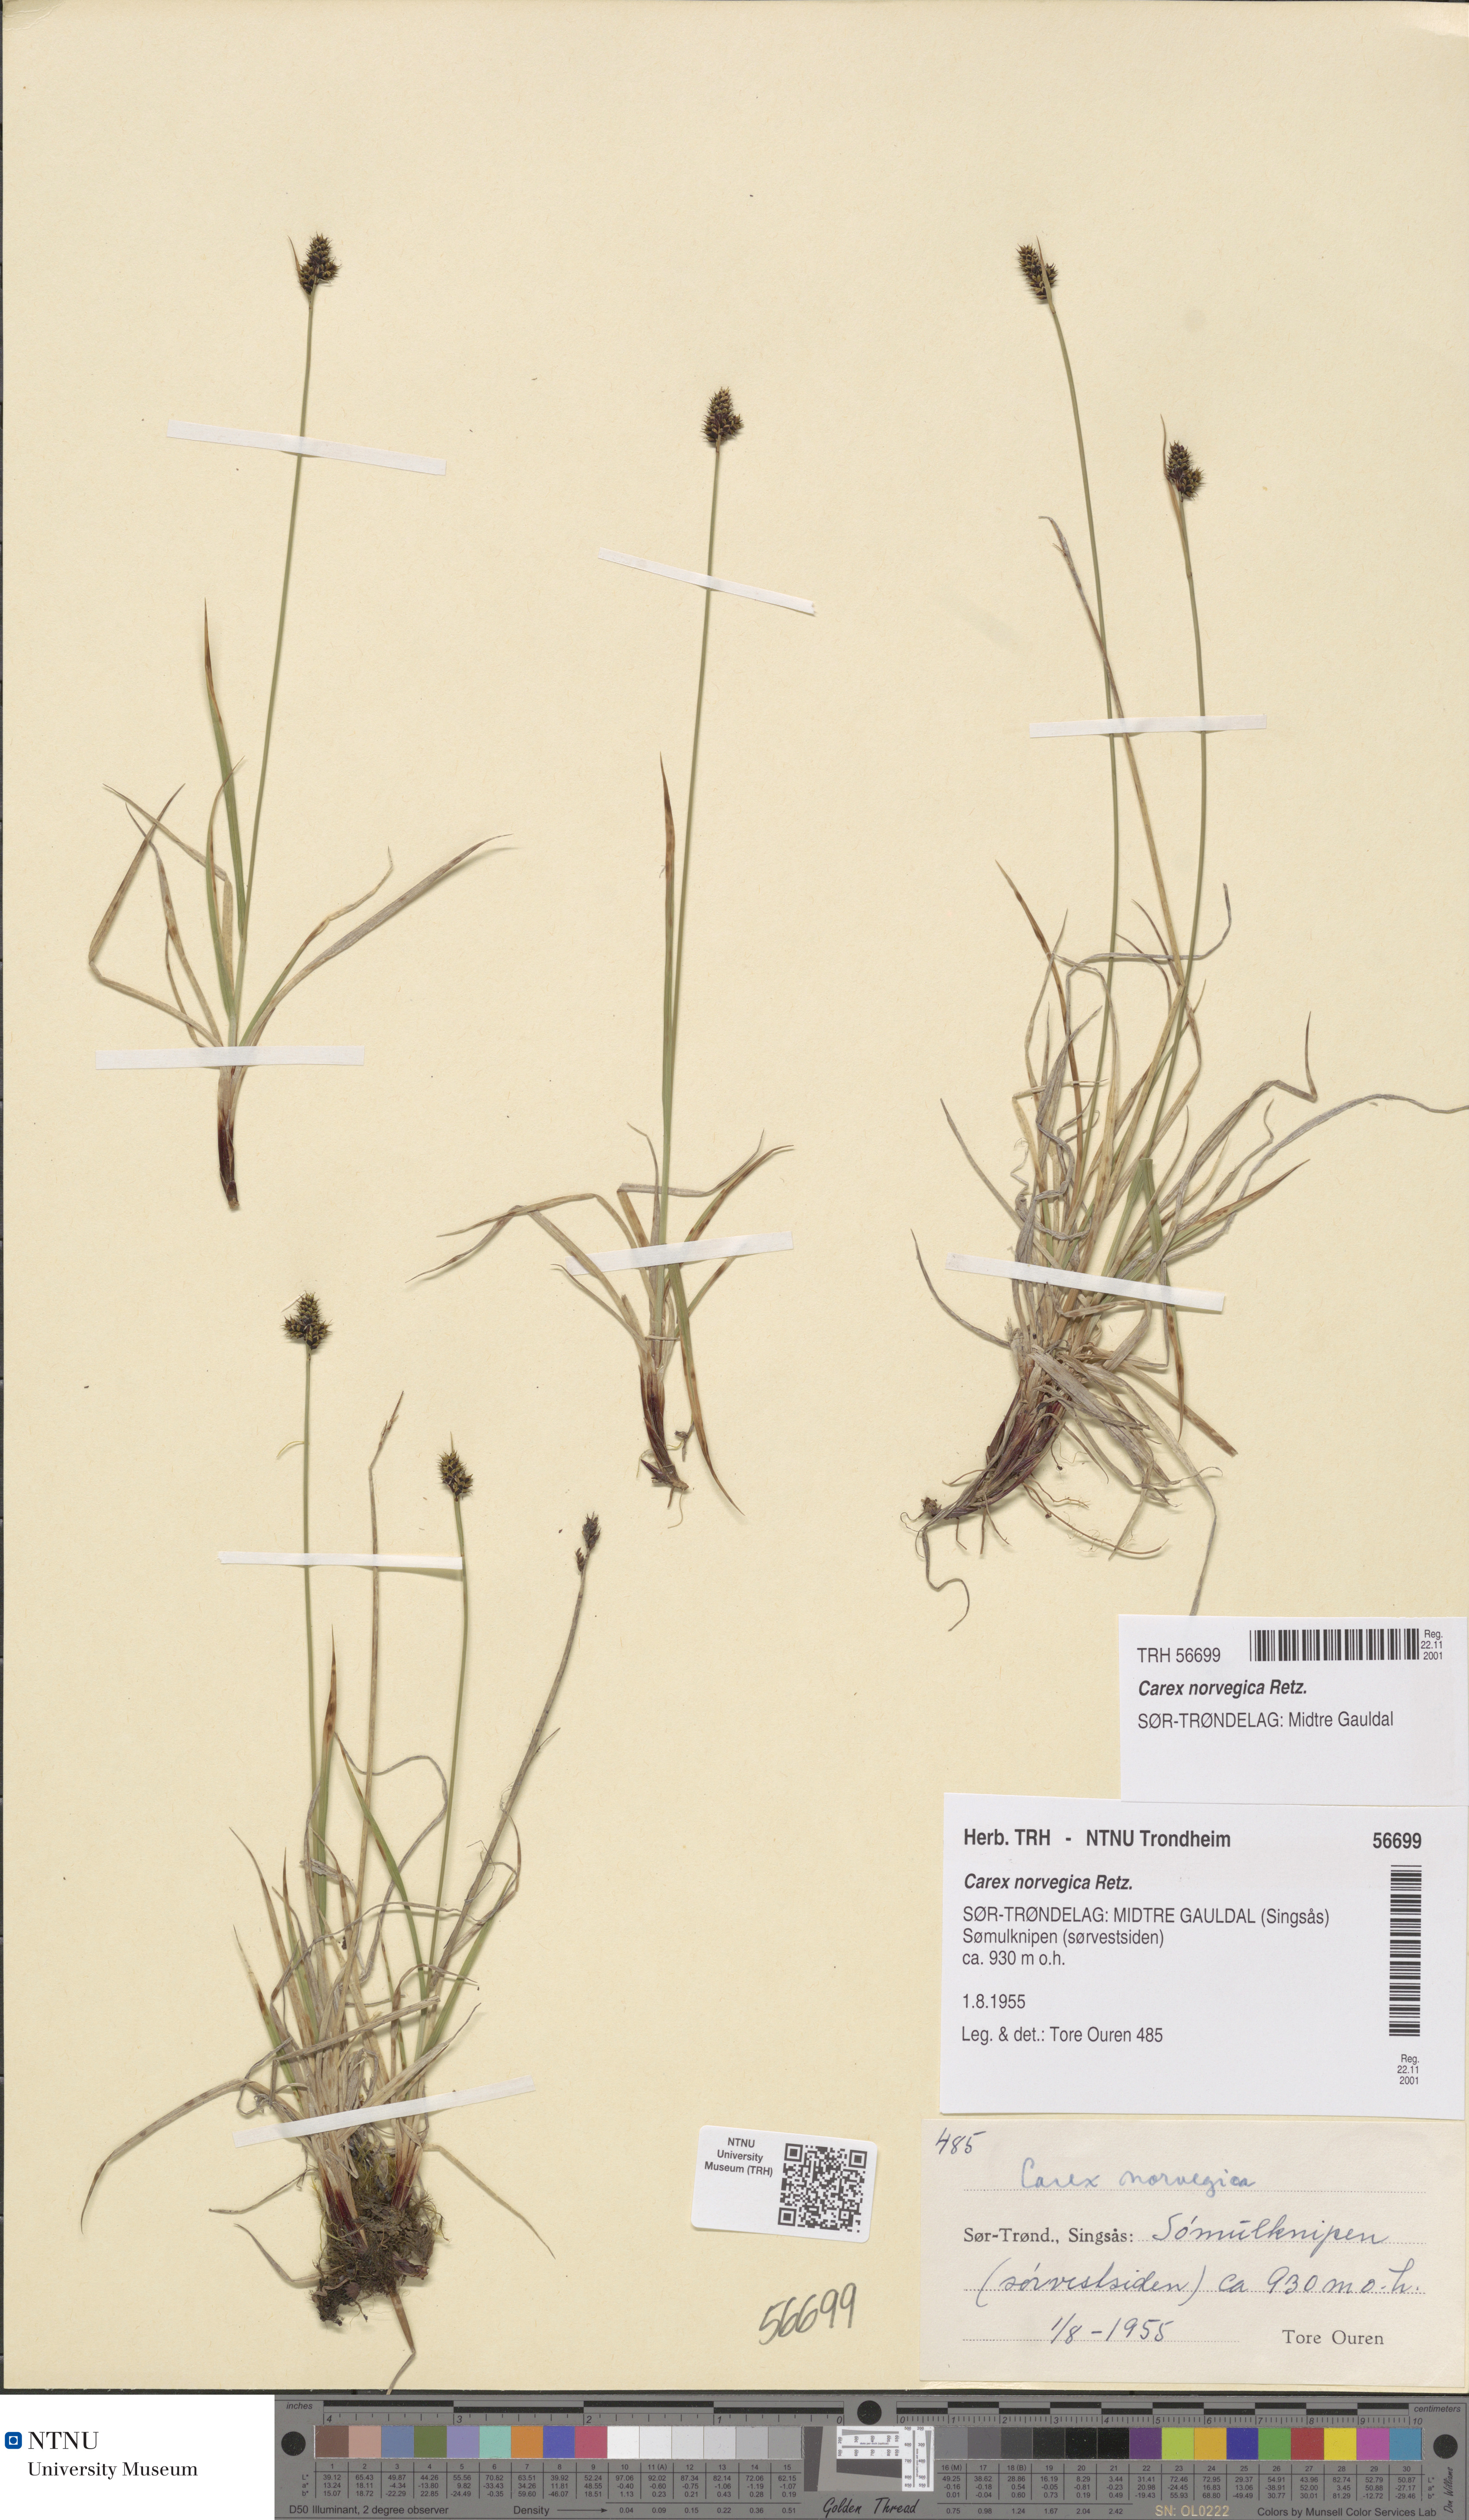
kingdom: Plantae
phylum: Tracheophyta
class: Liliopsida
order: Poales
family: Cyperaceae
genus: Carex
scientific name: Carex norvegica
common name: Close-headed alpine-sedge
